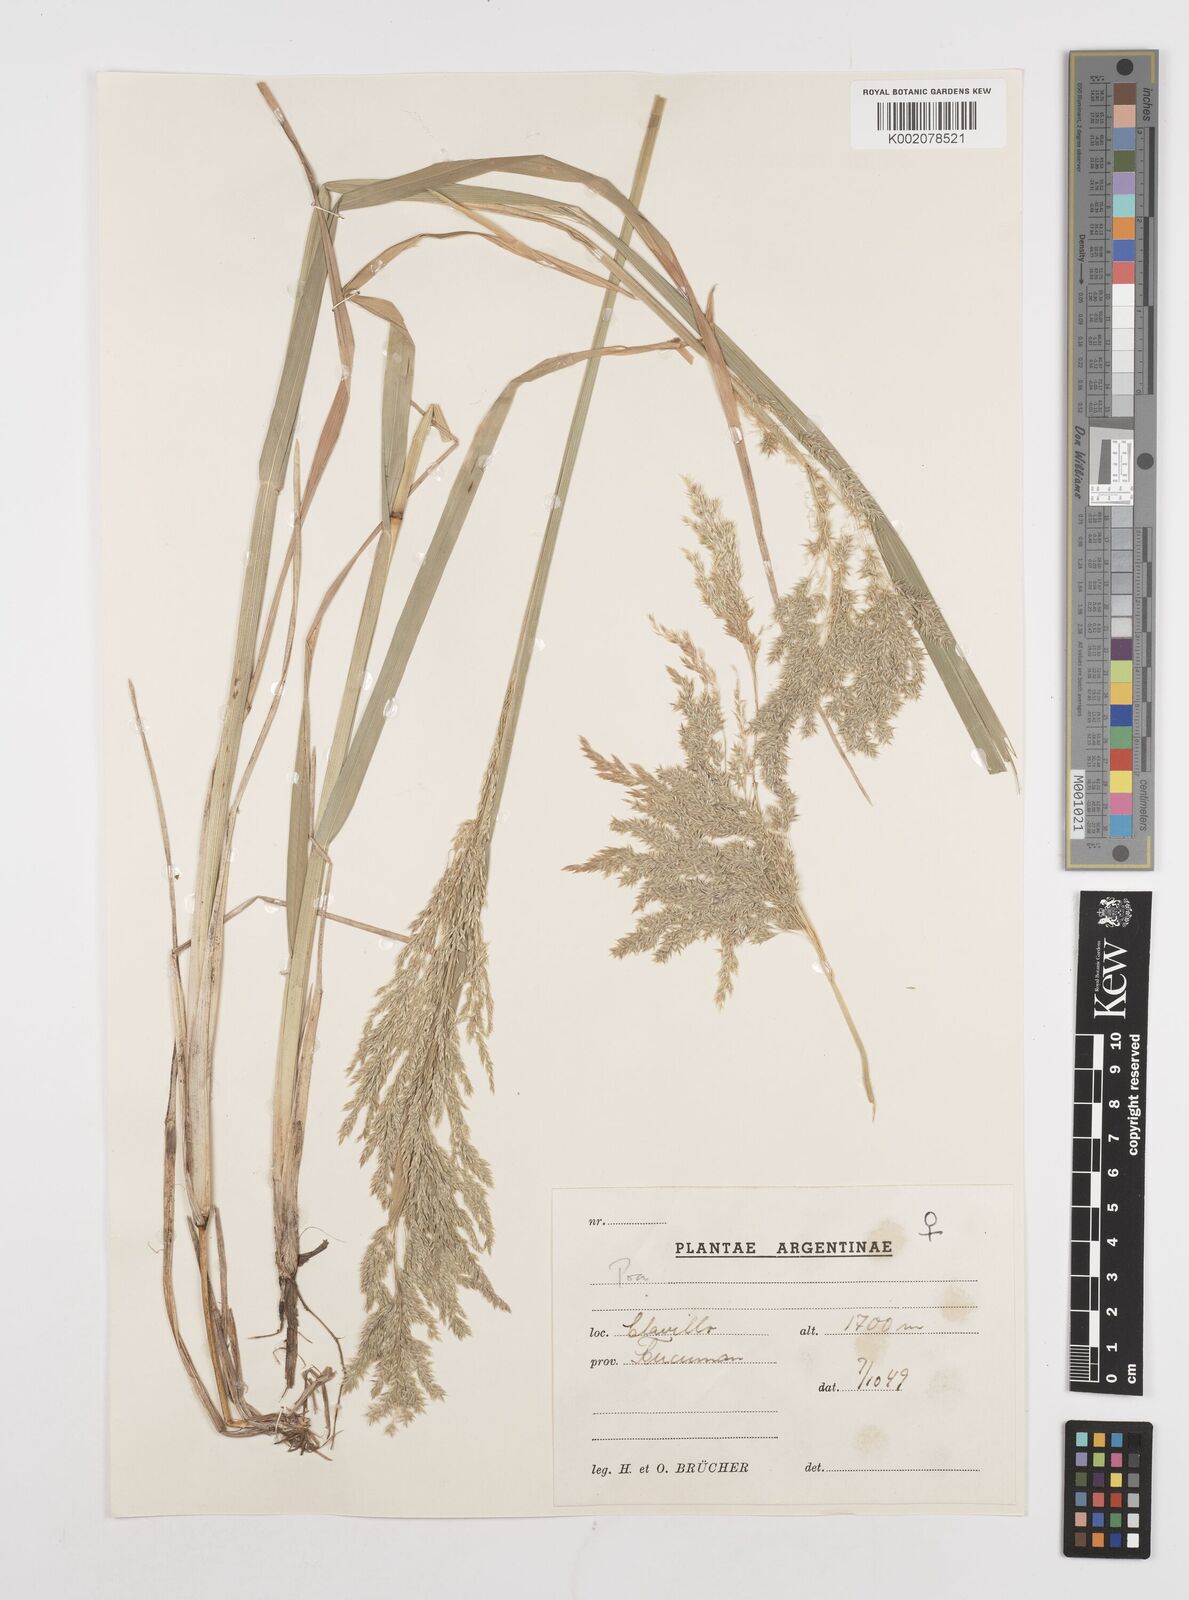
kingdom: Plantae
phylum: Tracheophyta
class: Liliopsida
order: Poales
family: Poaceae
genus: Poa
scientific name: Poa iridifolia
